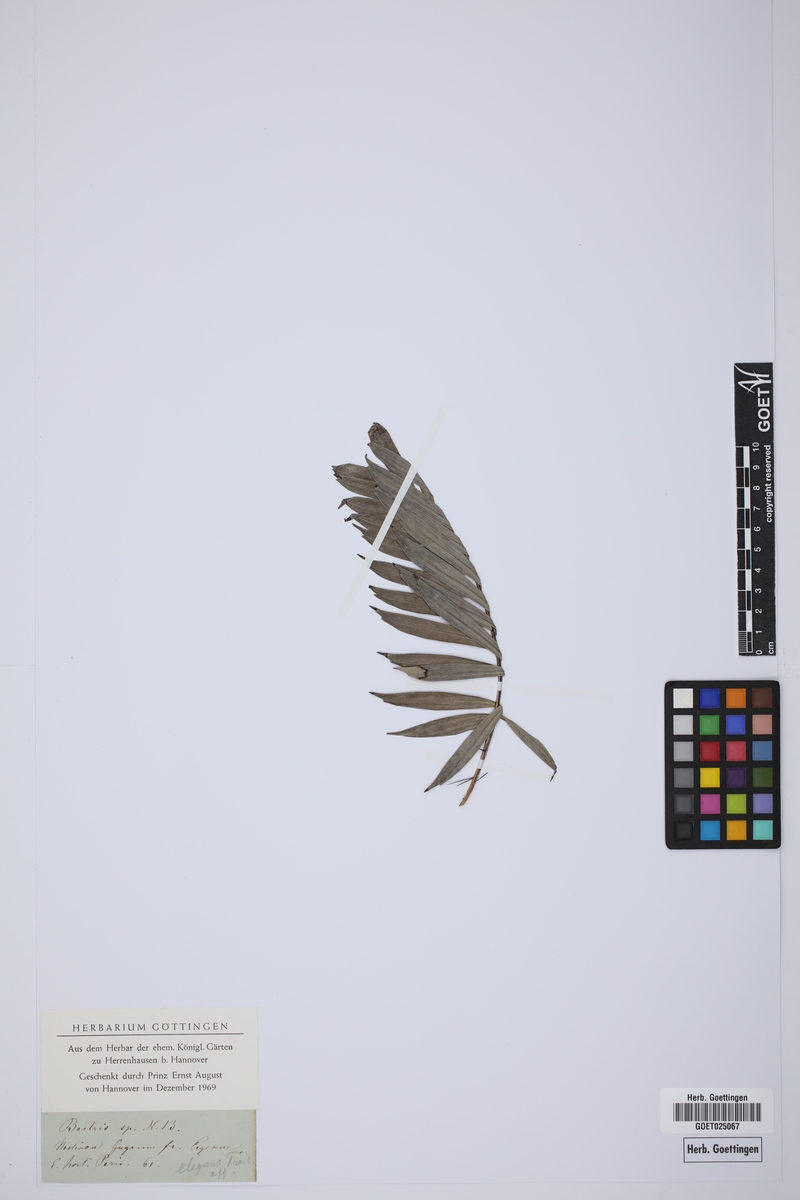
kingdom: Plantae
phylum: Tracheophyta
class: Liliopsida
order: Arecales
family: Arecaceae
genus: Bactris
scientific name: Bactris elegans
